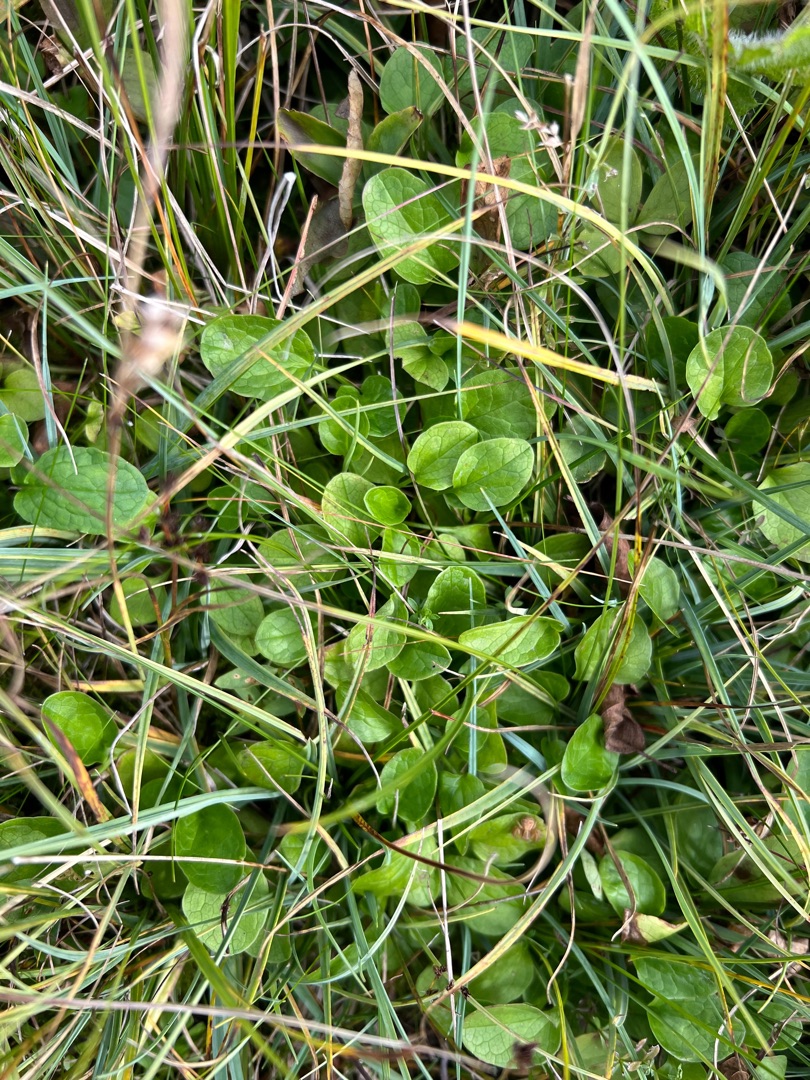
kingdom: Plantae
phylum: Tracheophyta
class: Magnoliopsida
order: Dipsacales
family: Caprifoliaceae
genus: Valeriana
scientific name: Valeriana dioica
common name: Tvebo baldrian
